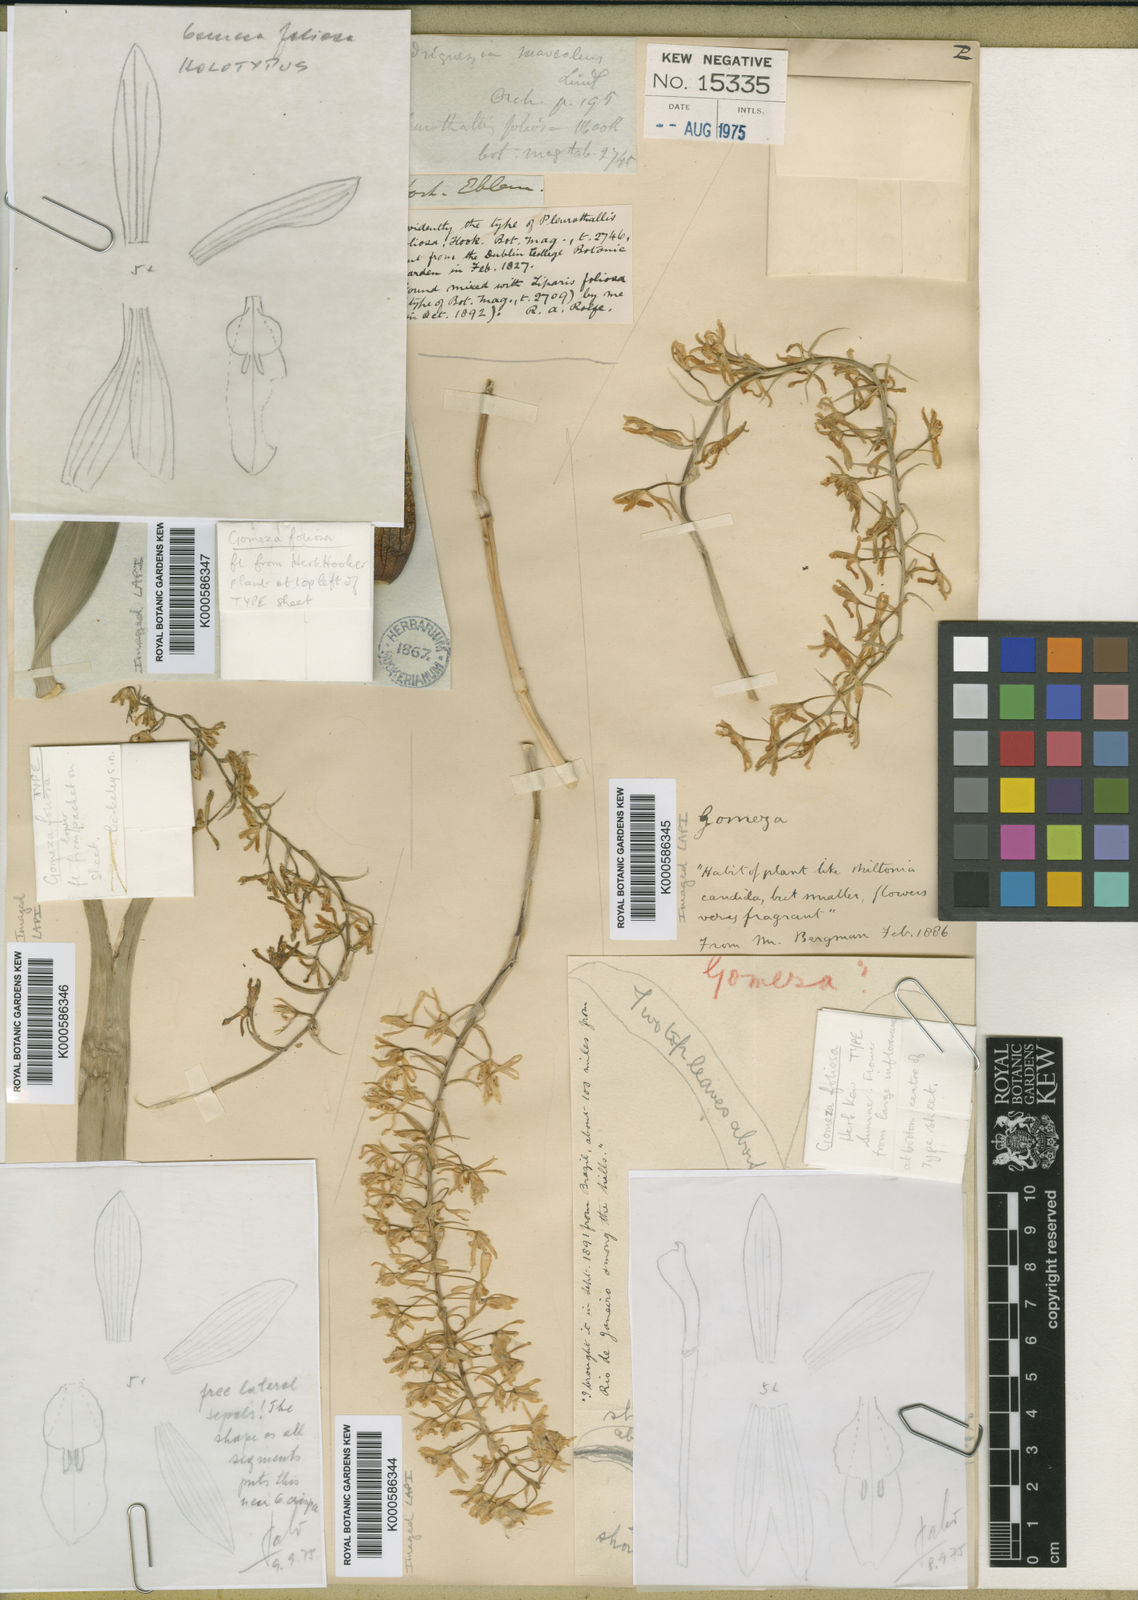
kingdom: Plantae
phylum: Tracheophyta
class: Liliopsida
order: Asparagales
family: Orchidaceae
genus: Gomesa
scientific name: Gomesa recurva
